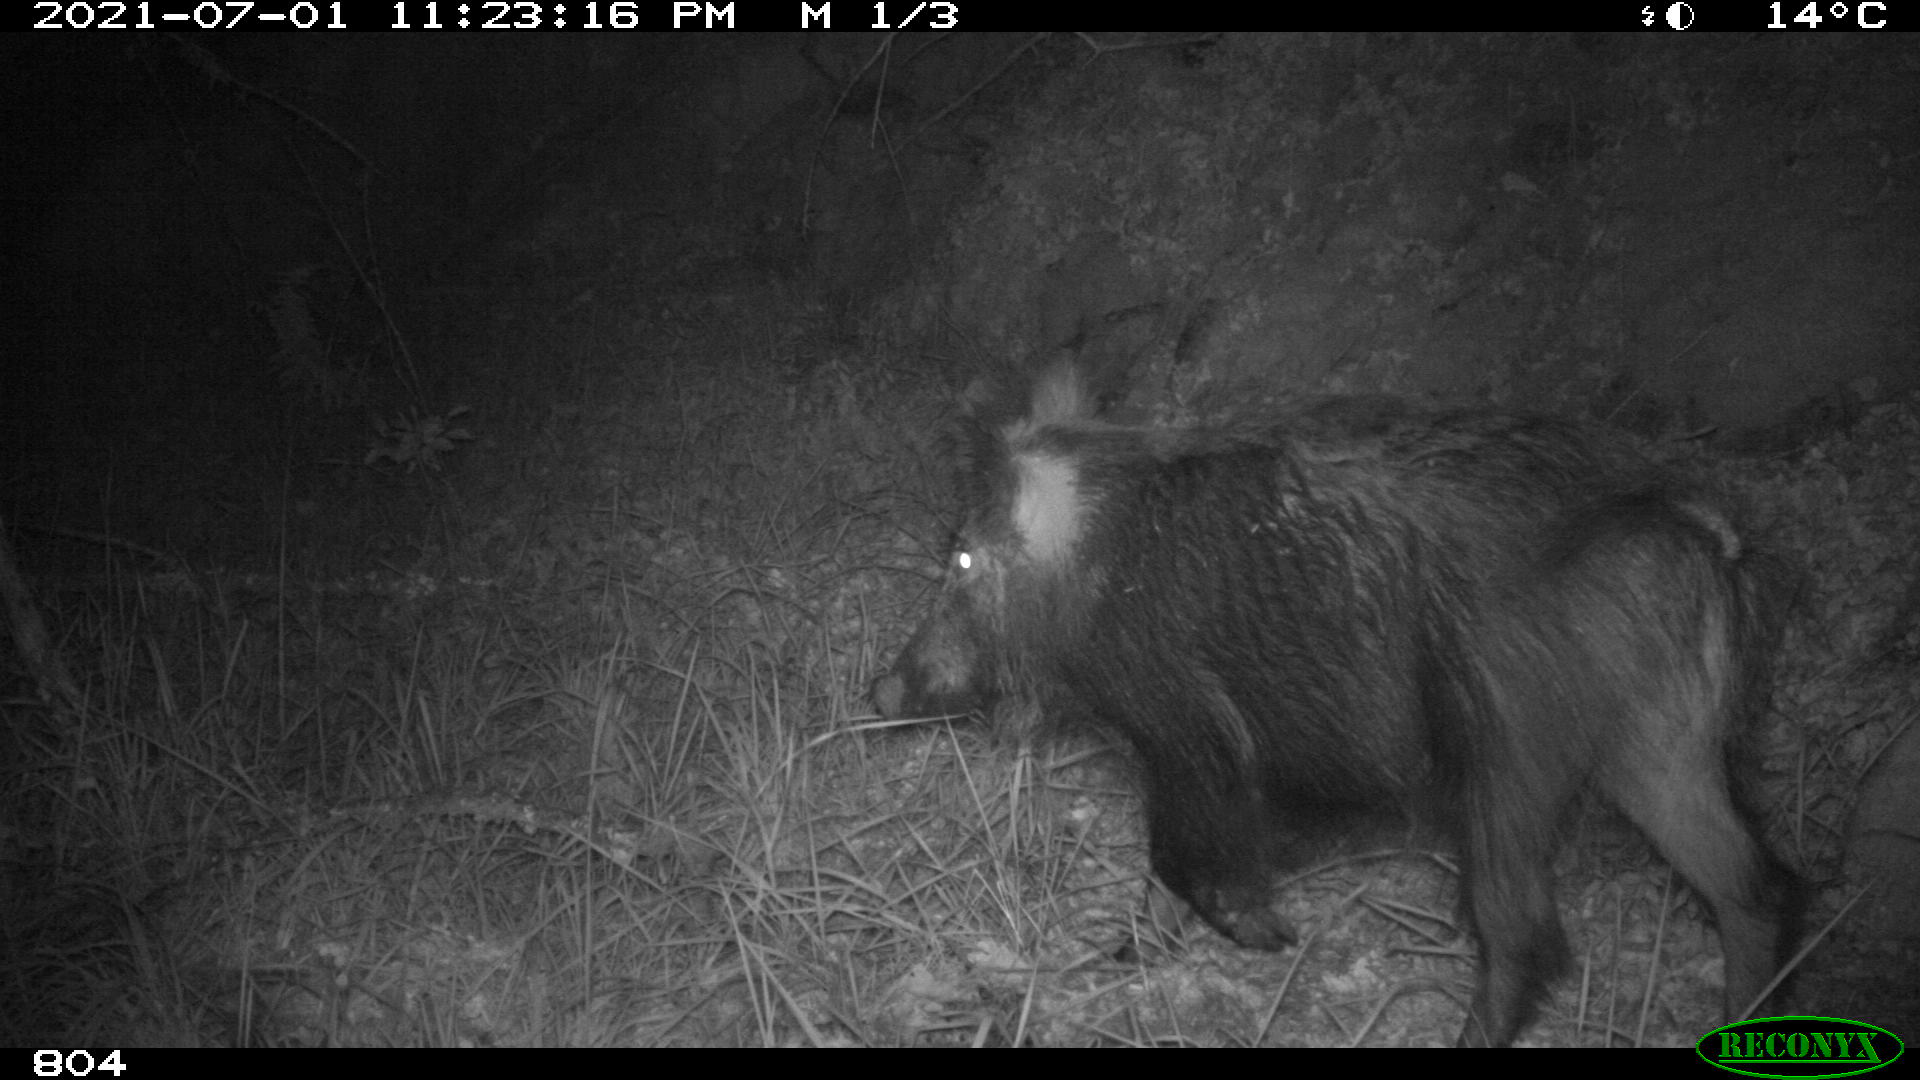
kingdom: Animalia
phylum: Chordata
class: Mammalia
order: Artiodactyla
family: Suidae
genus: Sus
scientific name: Sus scrofa
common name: Wild boar
